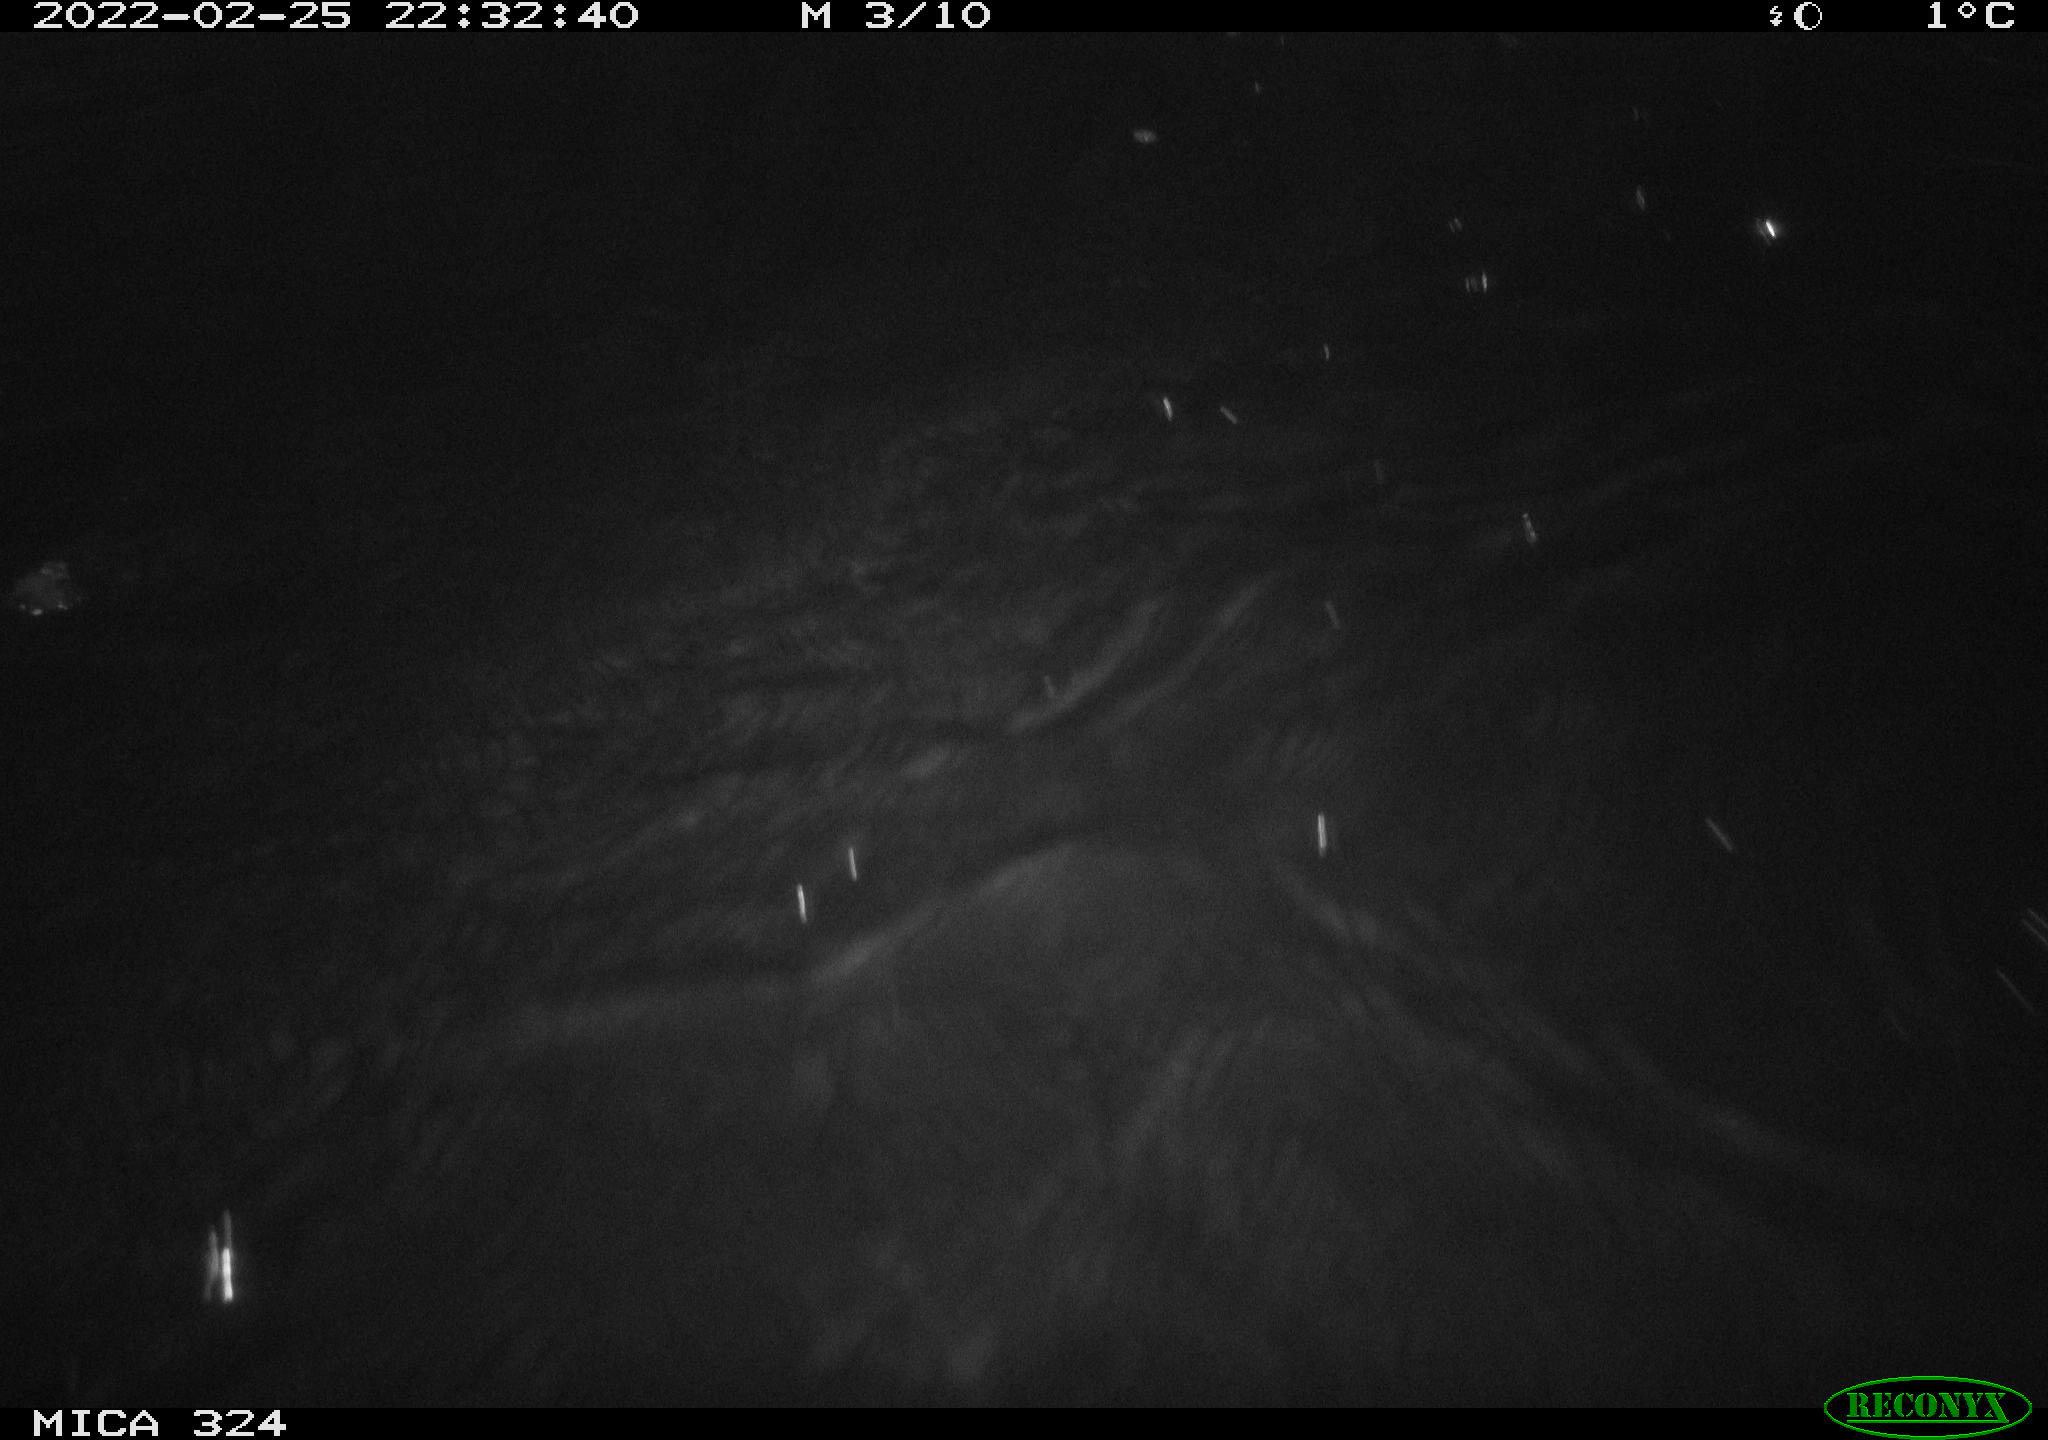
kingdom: Animalia
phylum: Chordata
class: Mammalia
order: Rodentia
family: Cricetidae
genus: Ondatra
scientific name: Ondatra zibethicus
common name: Muskrat
